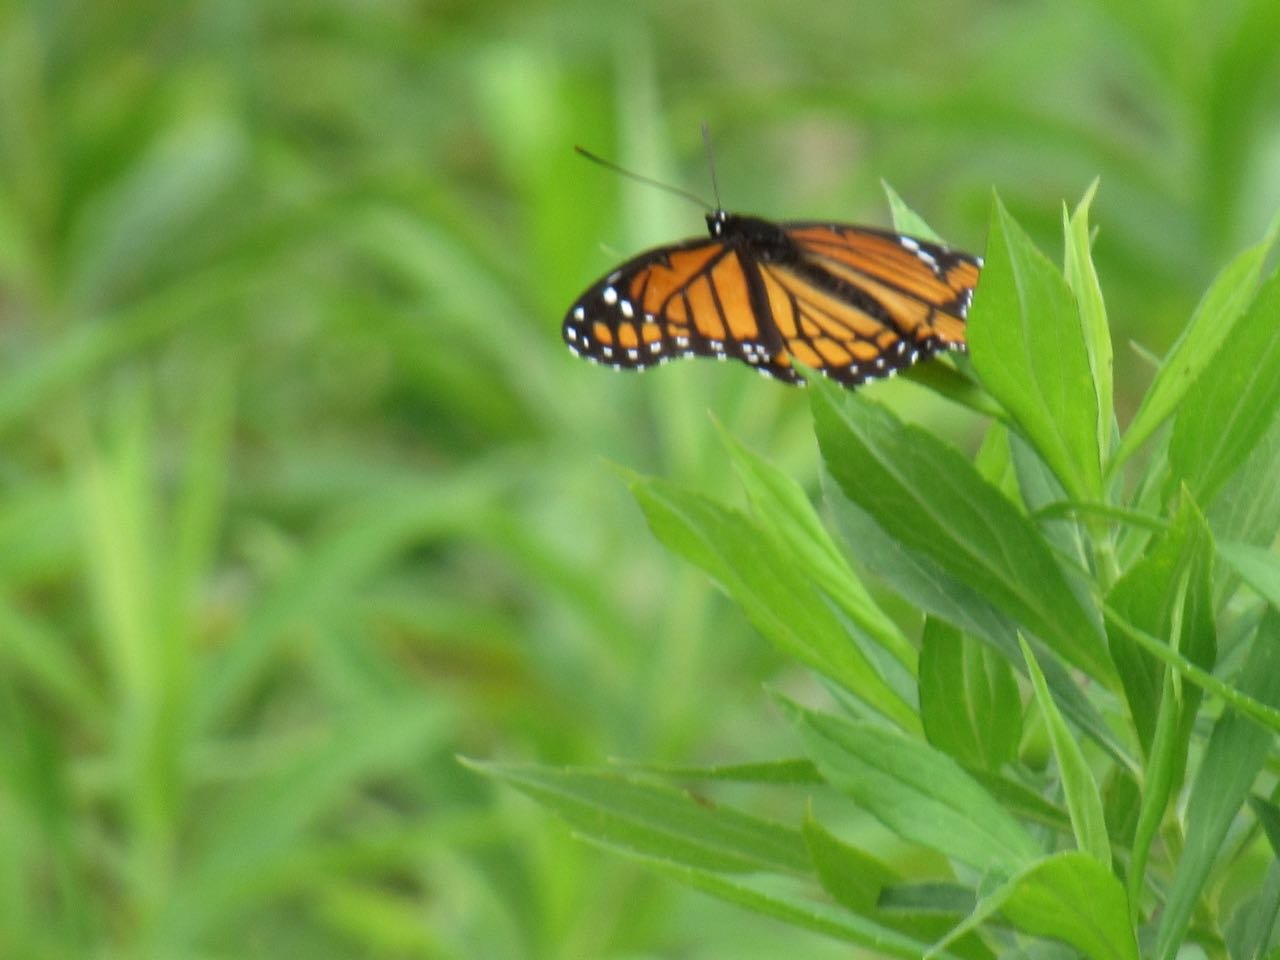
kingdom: Animalia
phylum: Arthropoda
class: Insecta
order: Lepidoptera
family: Nymphalidae
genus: Limenitis
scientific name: Limenitis archippus
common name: Viceroy
